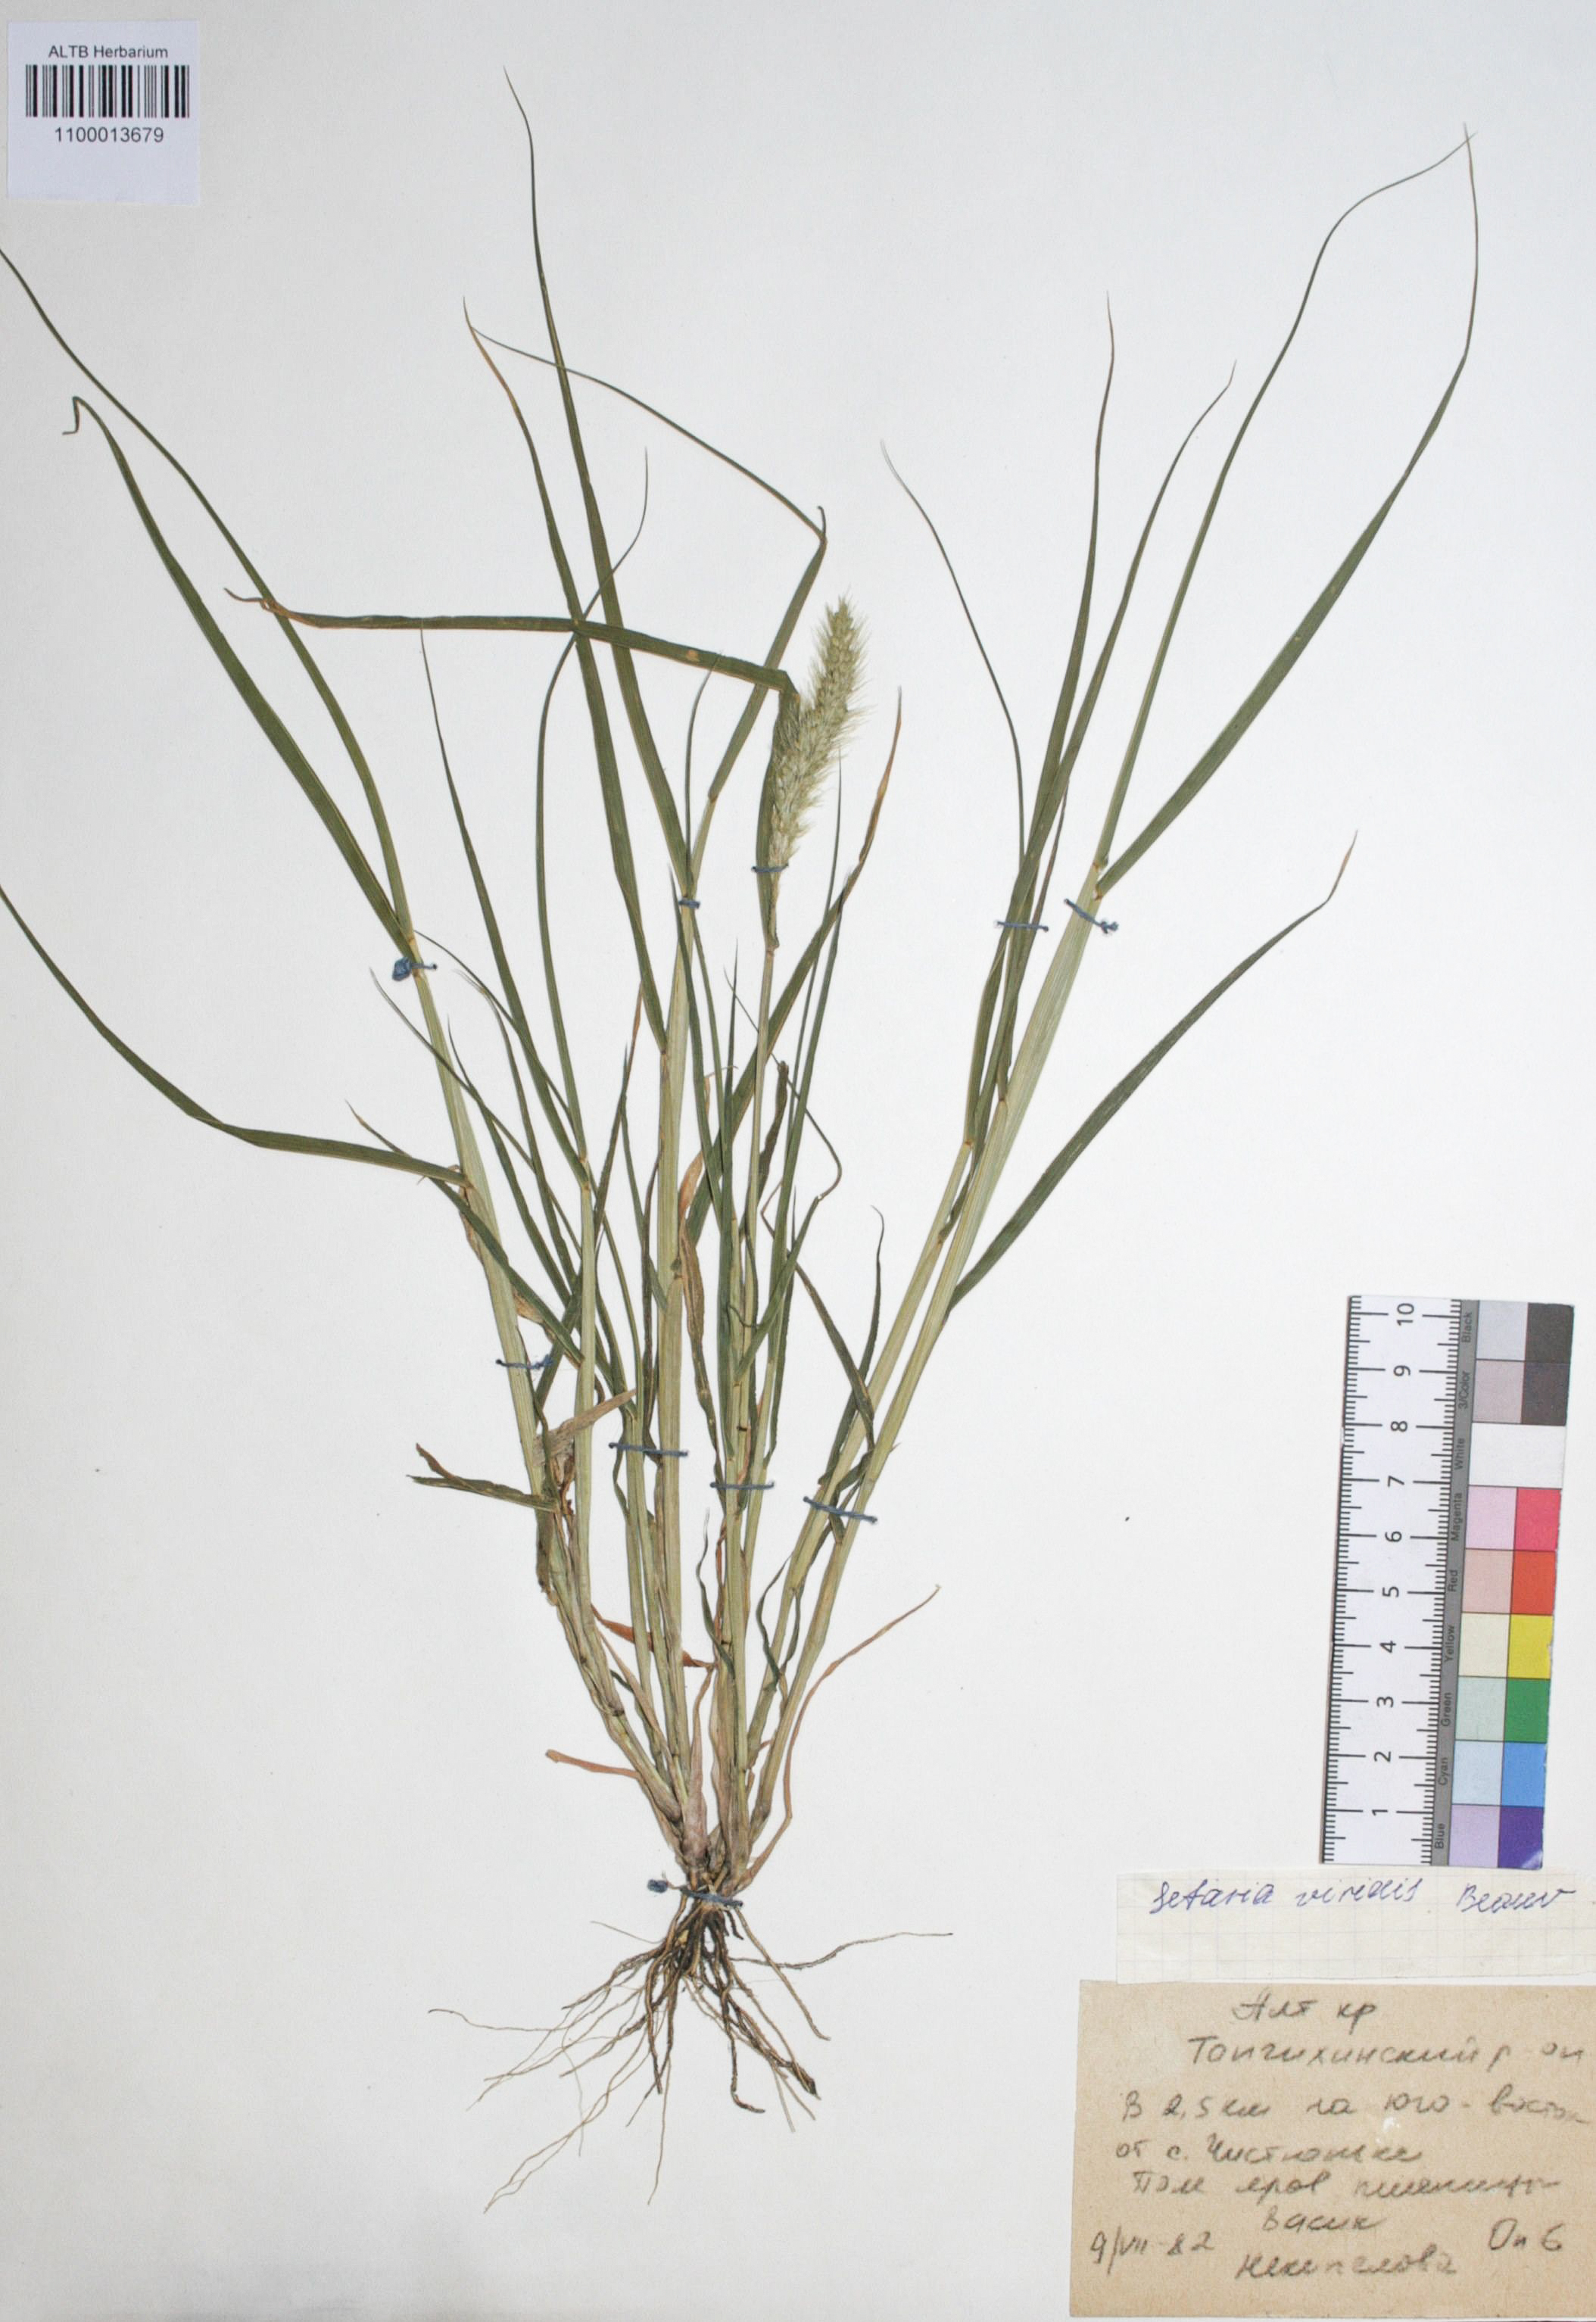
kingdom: Plantae
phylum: Tracheophyta
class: Liliopsida
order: Poales
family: Poaceae
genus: Setaria
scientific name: Setaria viridis
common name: Green bristlegrass
